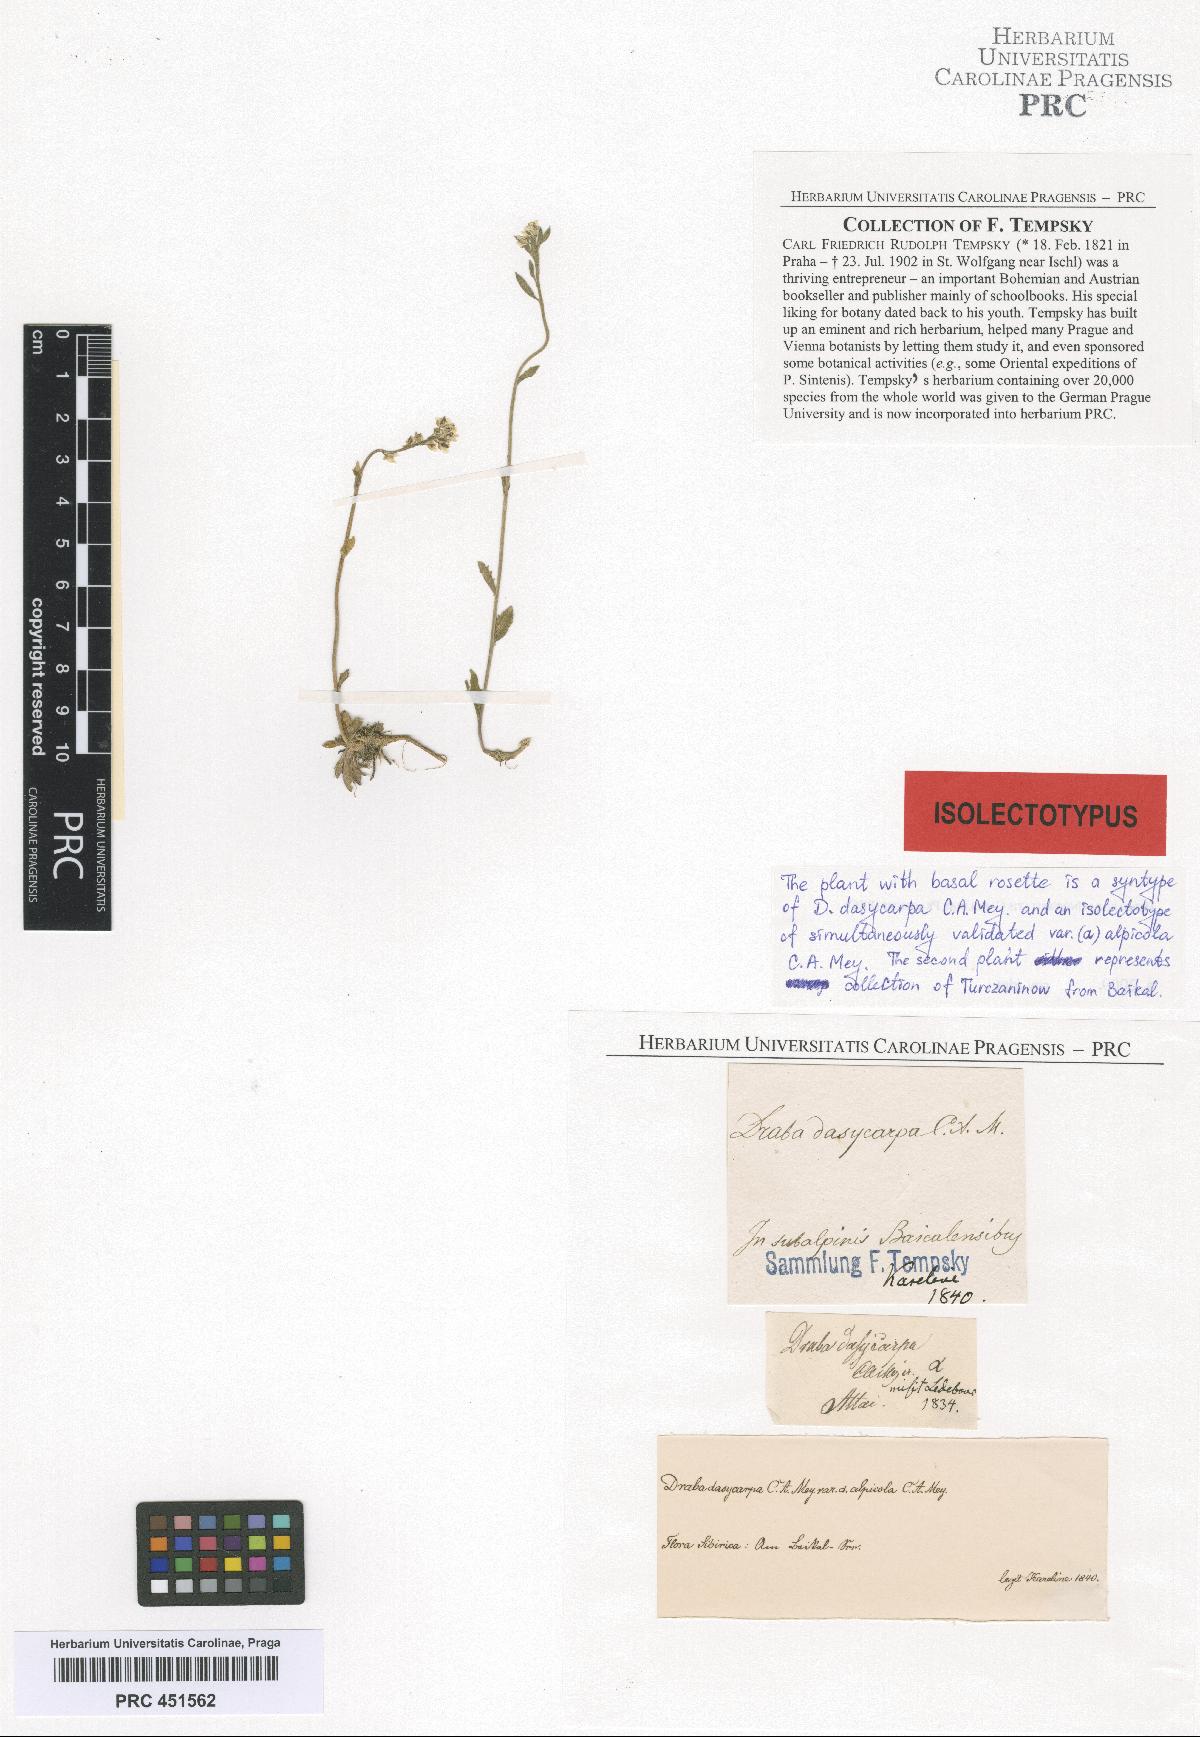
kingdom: Plantae
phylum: Tracheophyta
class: Magnoliopsida
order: Brassicales
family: Brassicaceae
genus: Draba
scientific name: Draba subamplexicaulis
